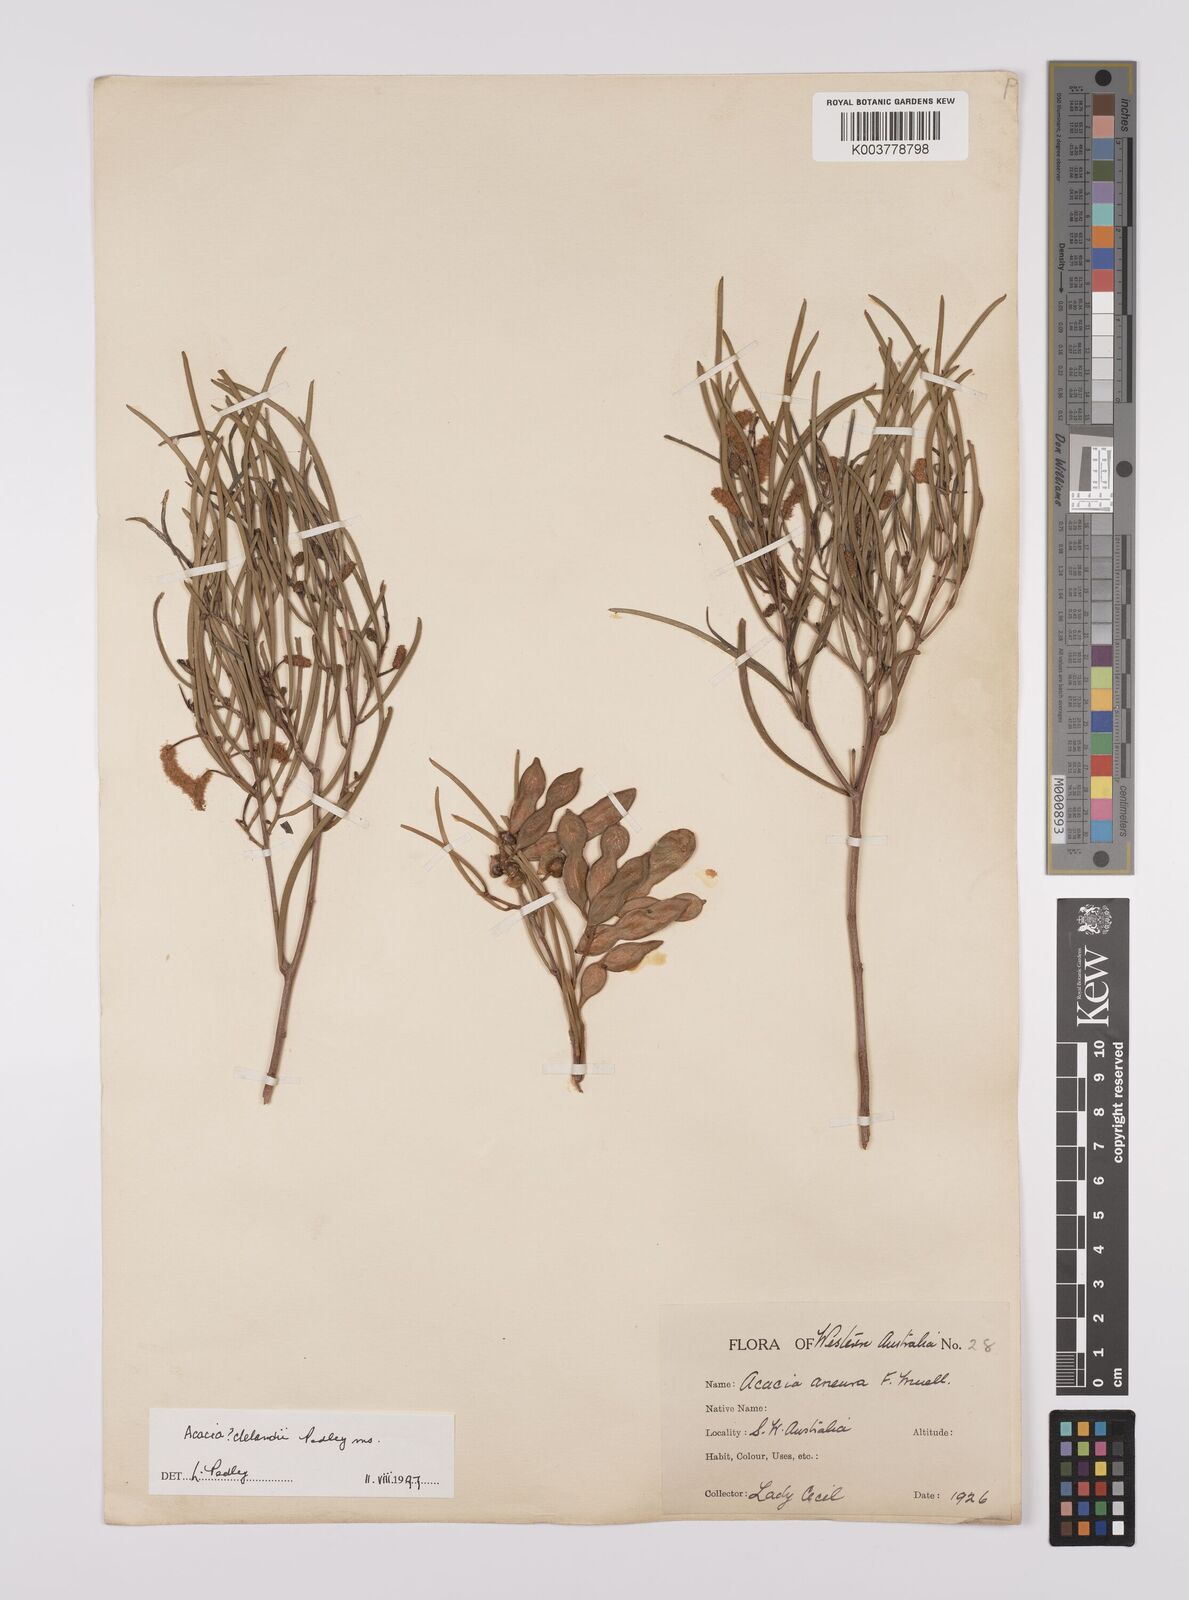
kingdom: Plantae
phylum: Tracheophyta
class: Magnoliopsida
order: Fabales
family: Fabaceae
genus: Acacia
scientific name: Acacia clelandii
